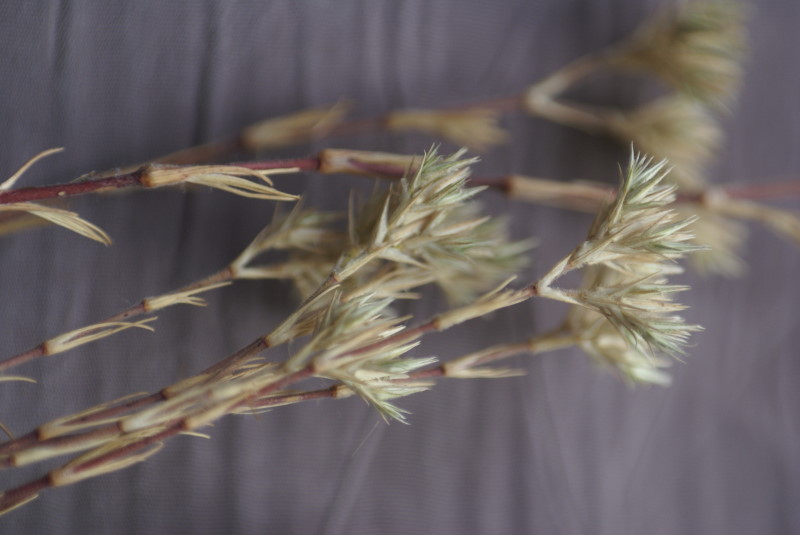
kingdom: Plantae
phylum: Tracheophyta
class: Magnoliopsida
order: Caryophyllales
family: Plumbaginaceae
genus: Goniolimon
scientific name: Goniolimon tauricum
